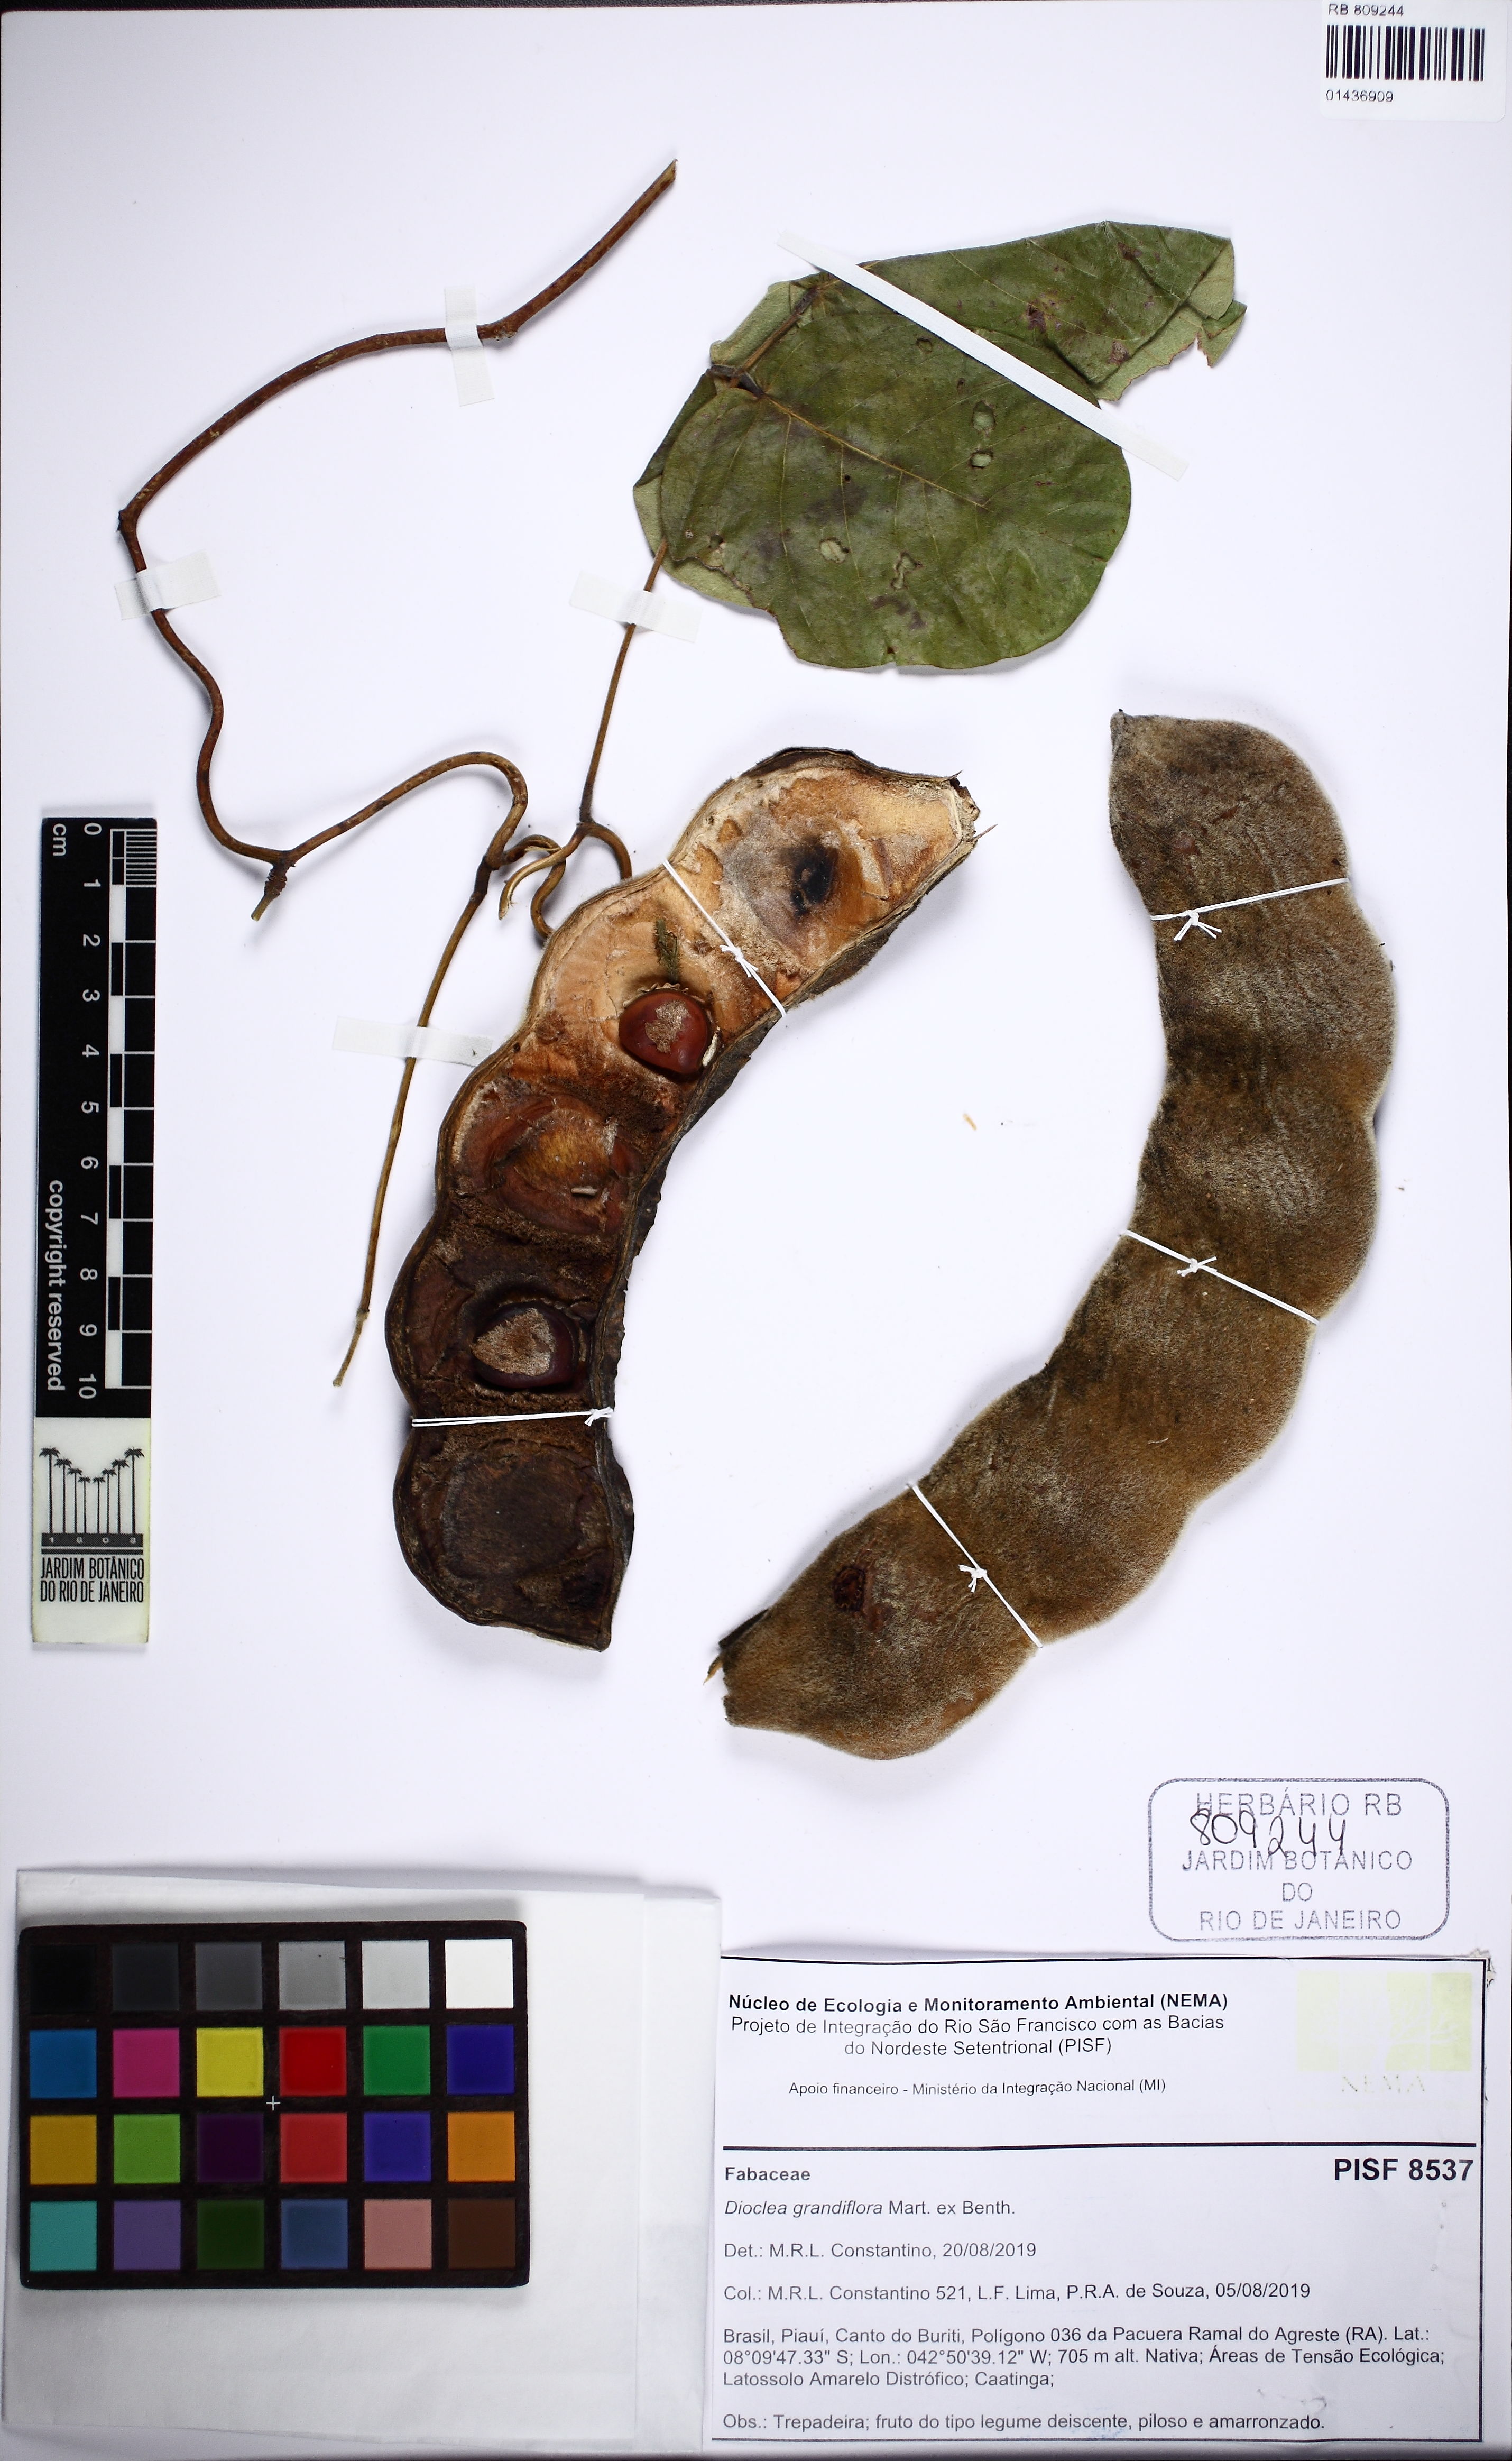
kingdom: Plantae
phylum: Tracheophyta
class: Magnoliopsida
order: Fabales
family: Fabaceae
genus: Macropsychanthus
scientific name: Macropsychanthus grandiflorus
